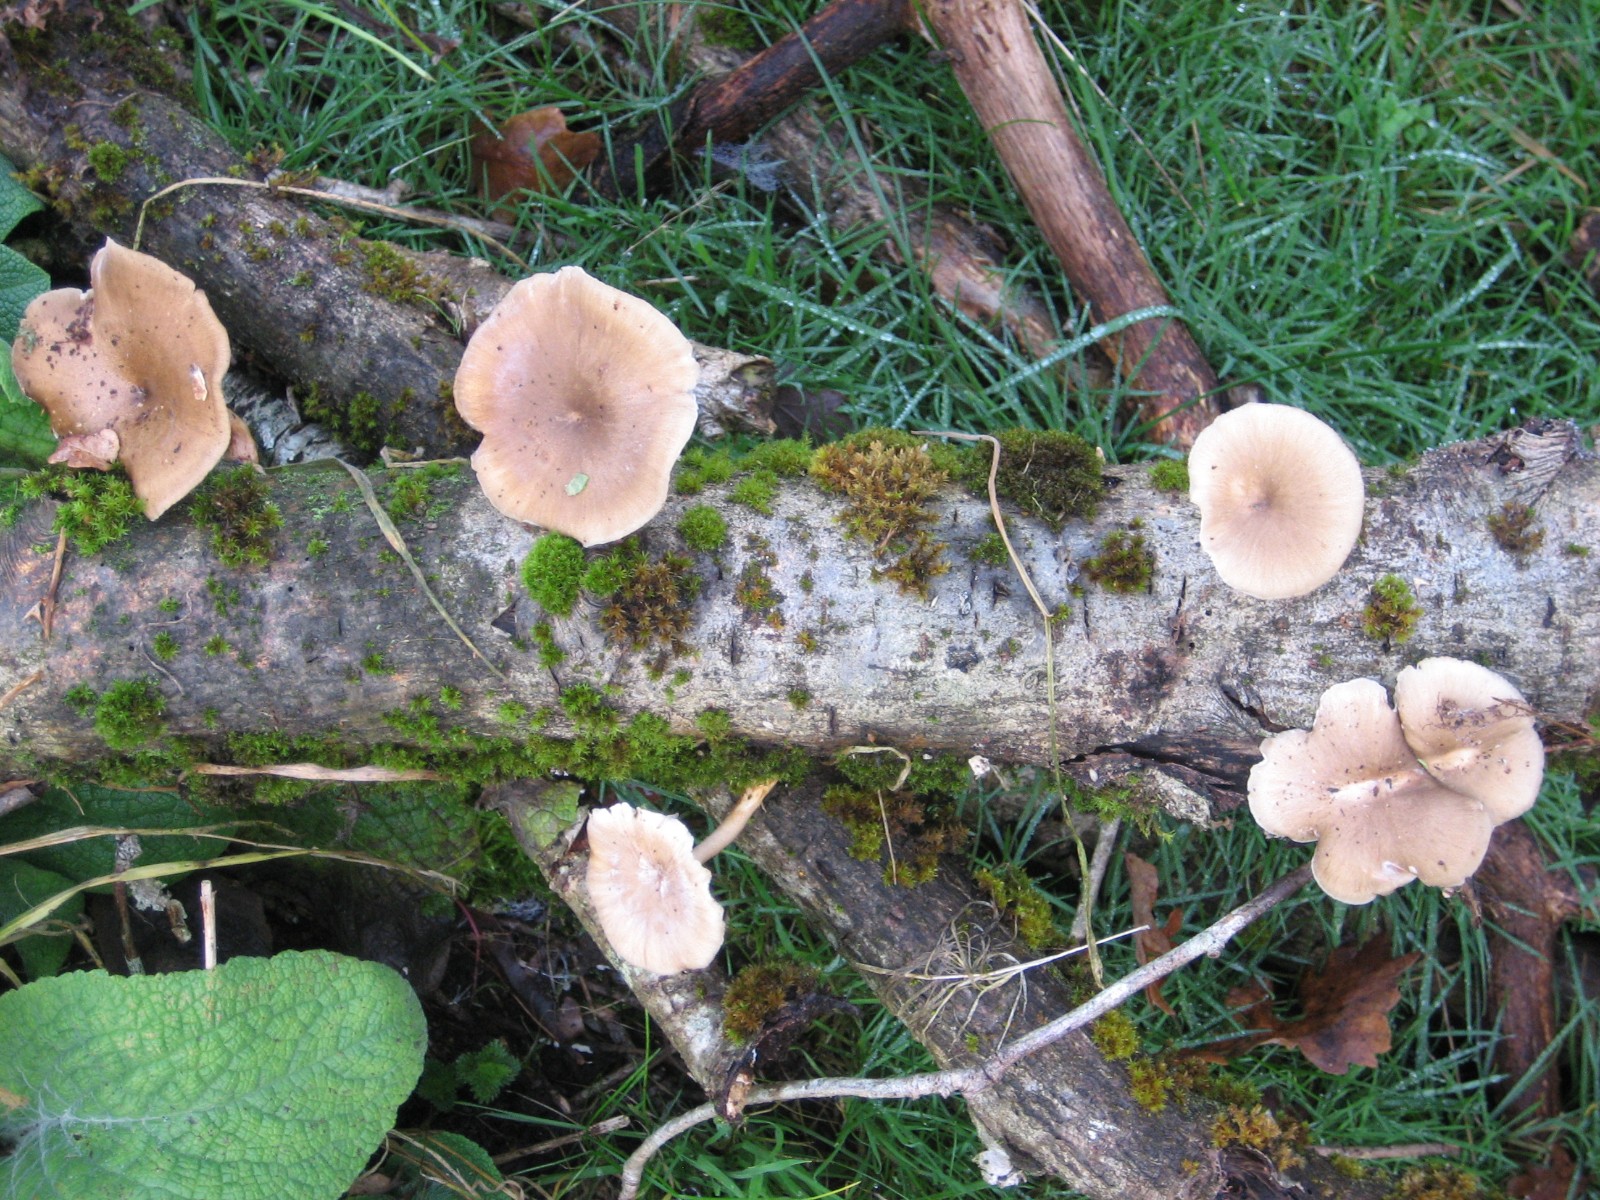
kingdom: Fungi
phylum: Basidiomycota
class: Agaricomycetes
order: Polyporales
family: Polyporaceae
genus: Lentinus
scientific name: Lentinus brumalis
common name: vinter-stilkporesvamp
